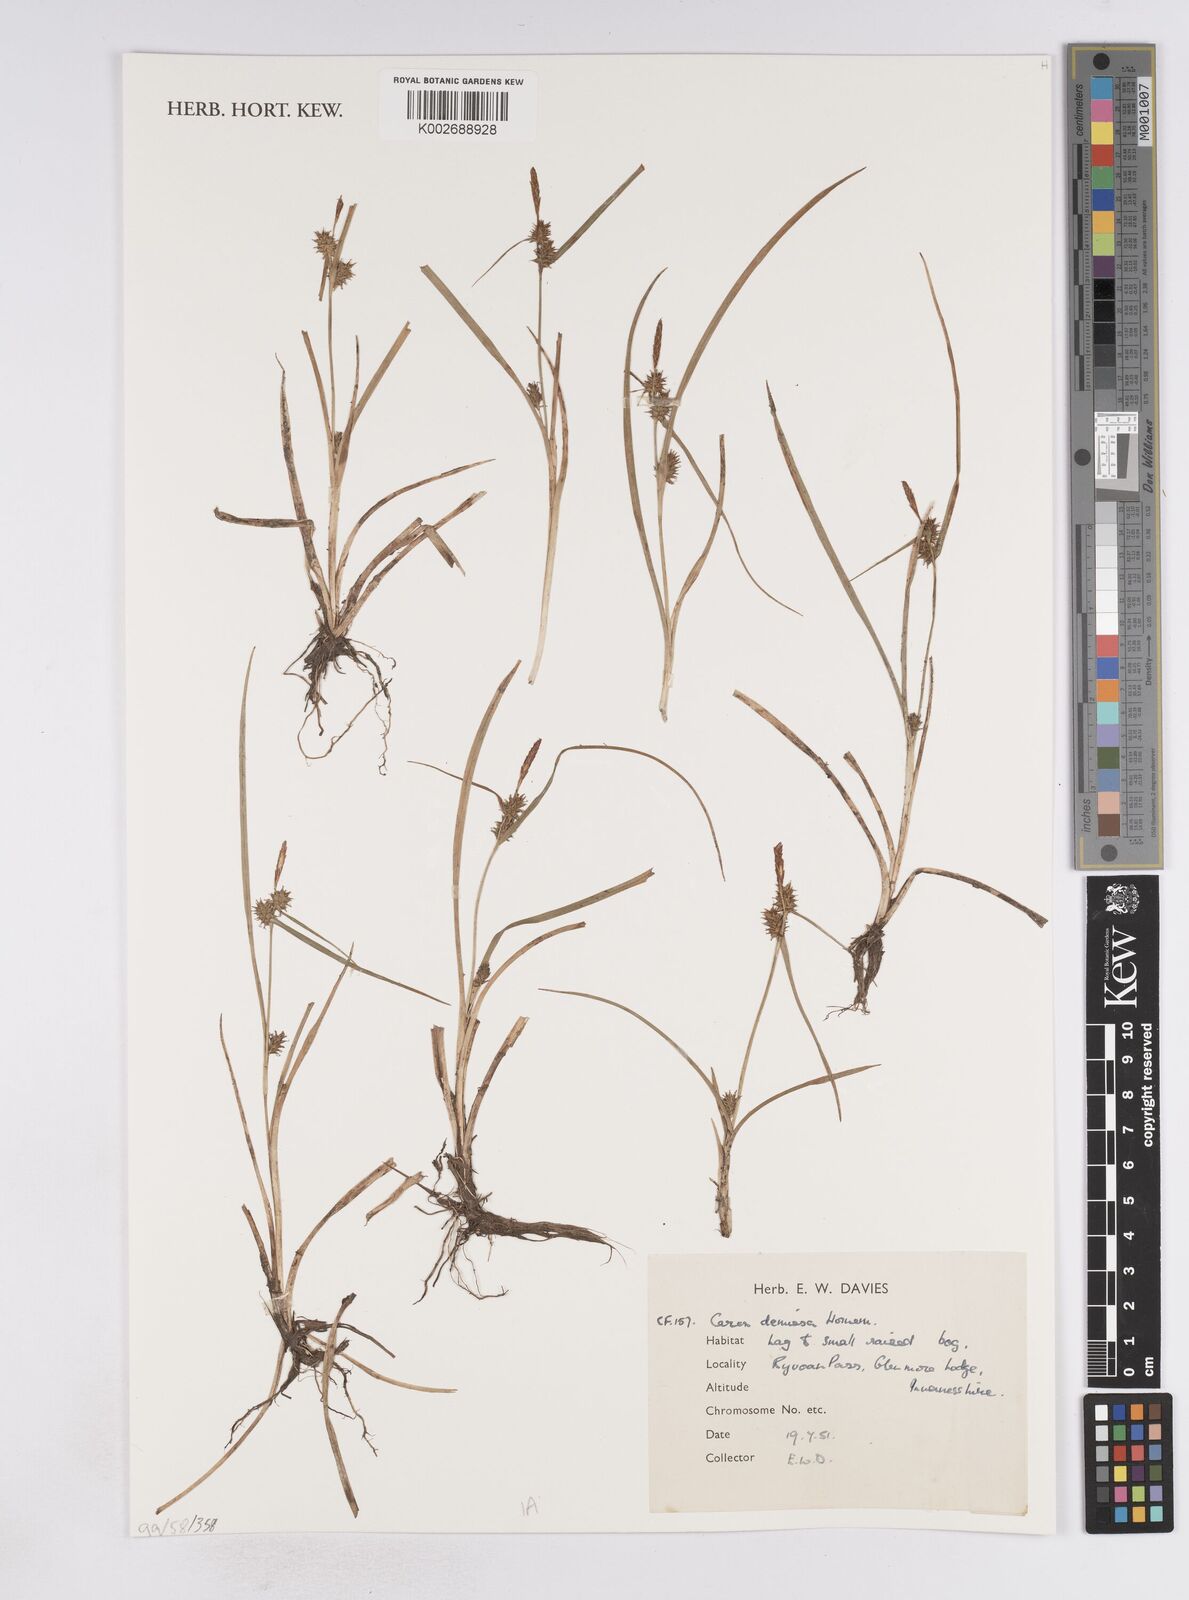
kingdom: Plantae
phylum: Tracheophyta
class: Liliopsida
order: Poales
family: Cyperaceae
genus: Carex
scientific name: Carex demissa
